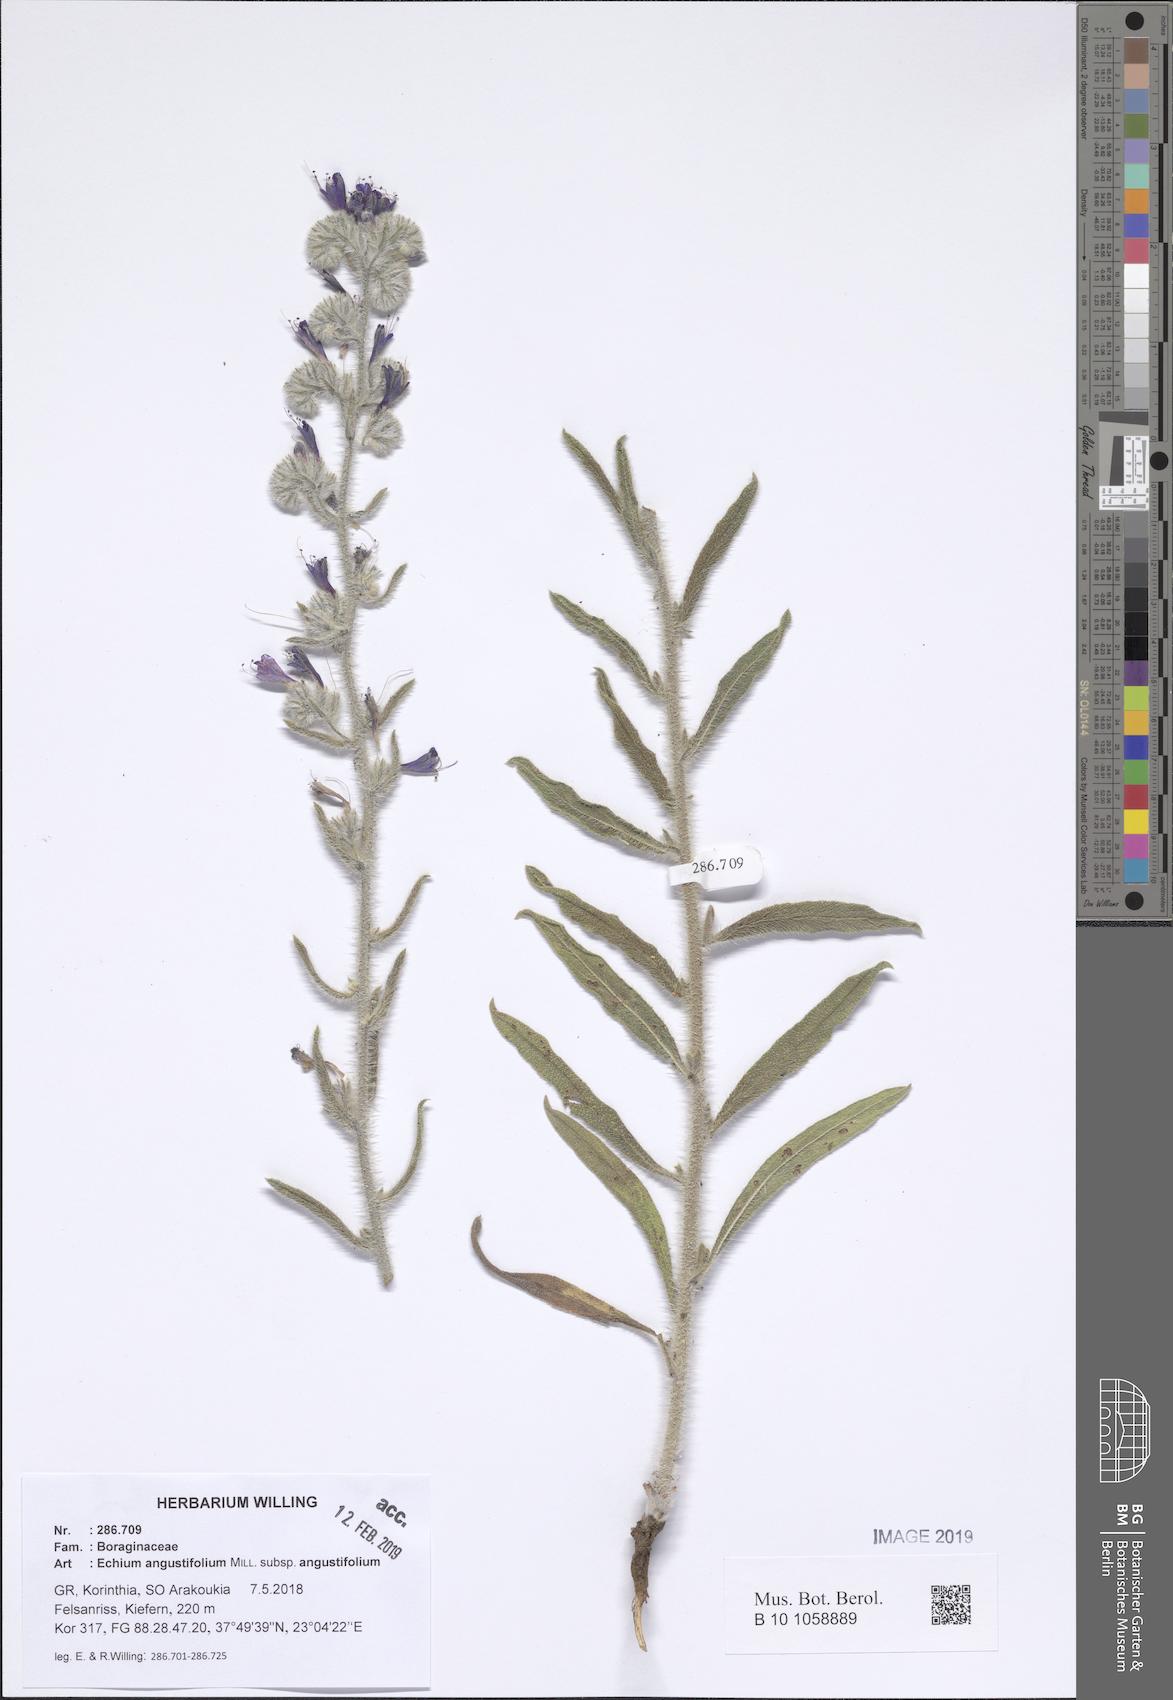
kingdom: Plantae
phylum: Tracheophyta
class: Magnoliopsida
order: Boraginales
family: Boraginaceae
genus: Echium
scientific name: Echium angustifolium
